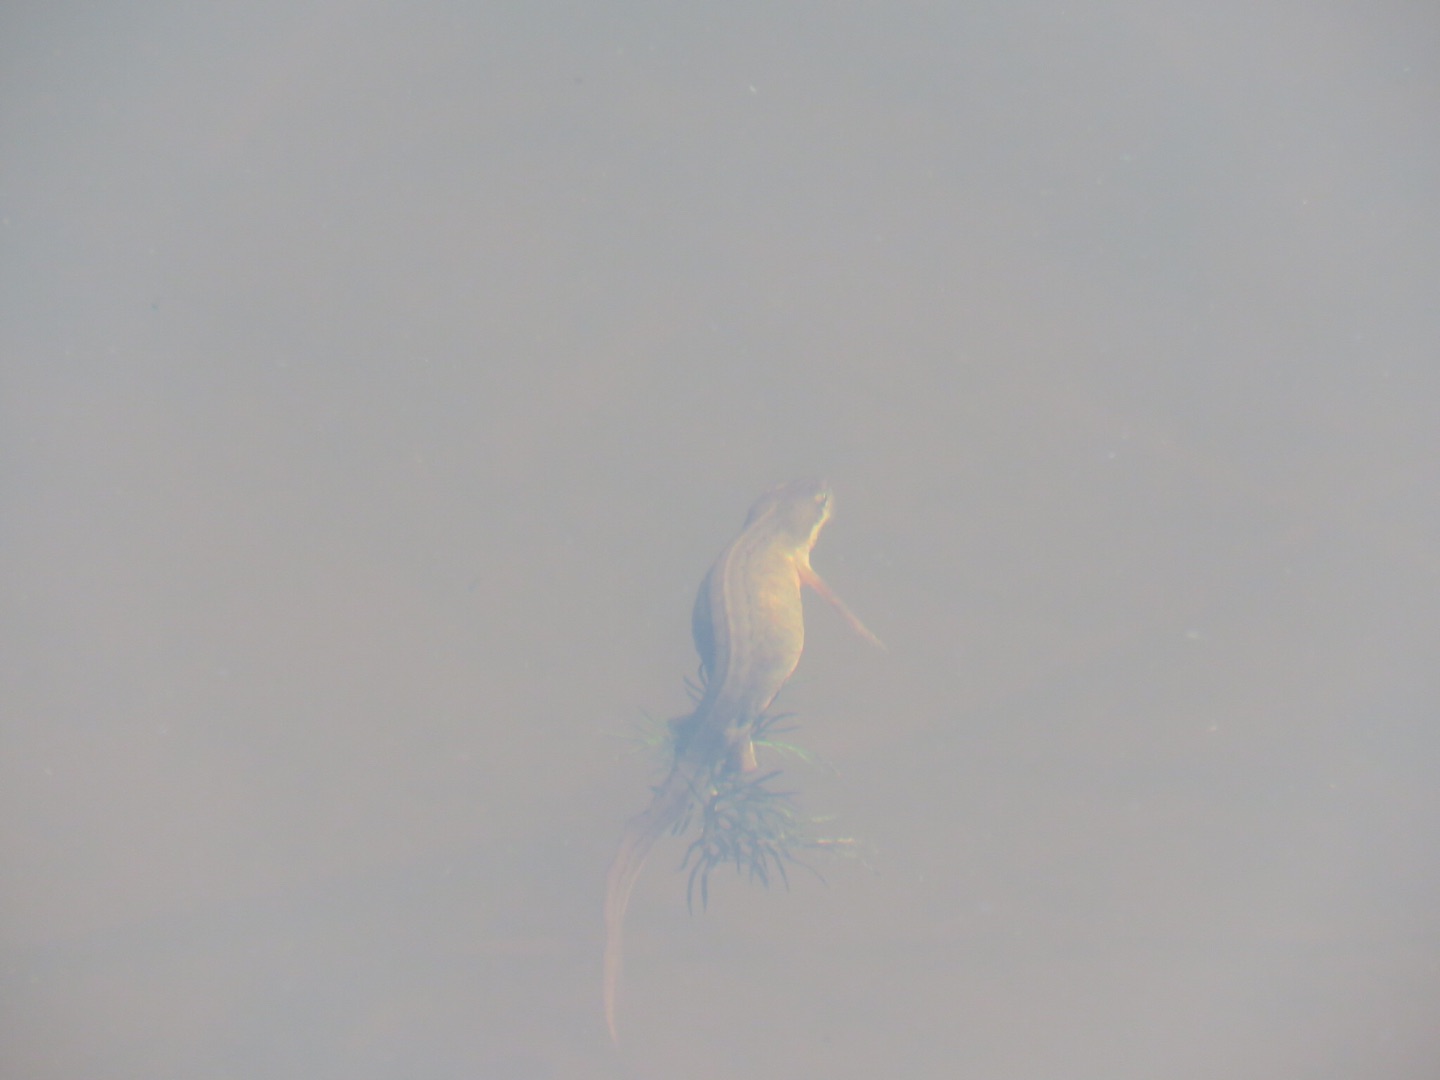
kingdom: Animalia
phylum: Chordata
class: Amphibia
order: Caudata
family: Salamandridae
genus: Lissotriton
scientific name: Lissotriton vulgaris
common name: Lille vandsalamander
